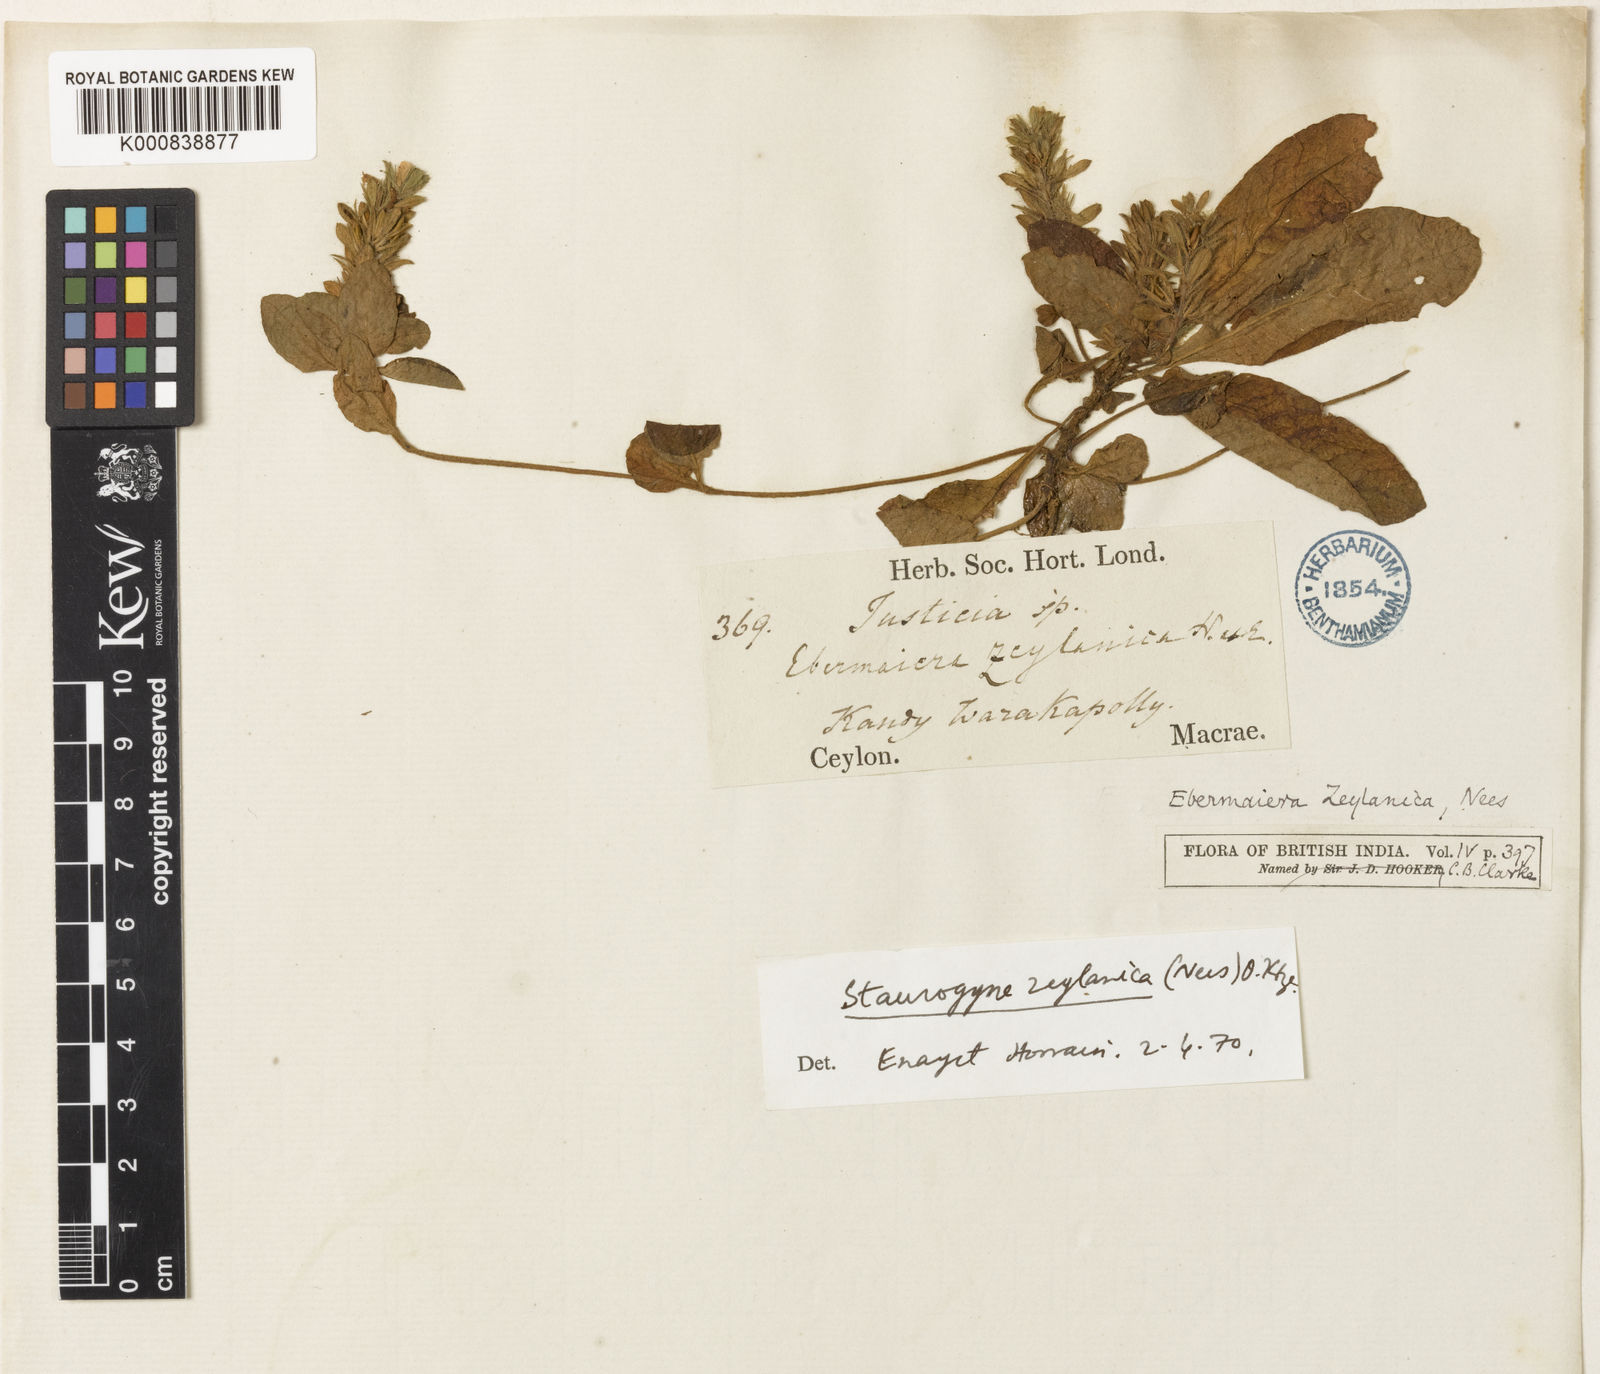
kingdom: Plantae
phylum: Tracheophyta
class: Magnoliopsida
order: Lamiales
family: Acanthaceae
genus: Staurogyne
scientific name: Staurogyne zeylanica
